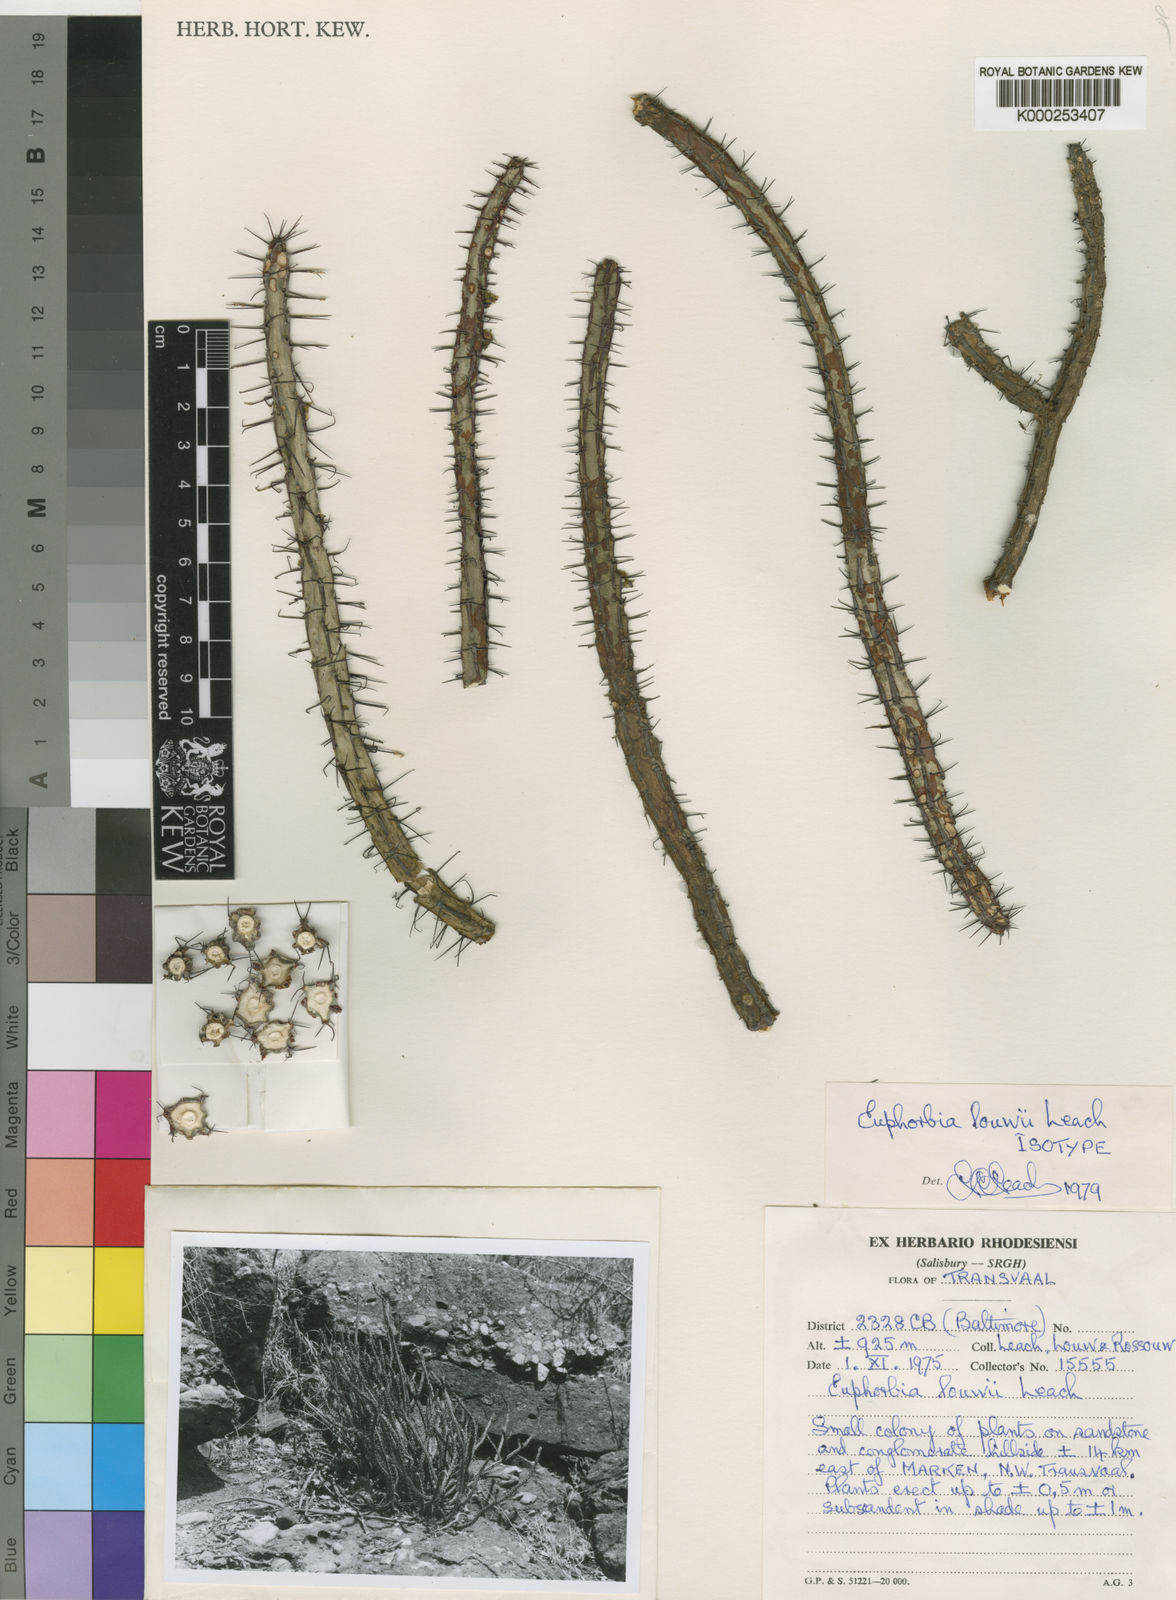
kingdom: Plantae
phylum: Tracheophyta
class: Magnoliopsida
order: Malpighiales
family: Euphorbiaceae
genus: Euphorbia
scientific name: Euphorbia louwii
